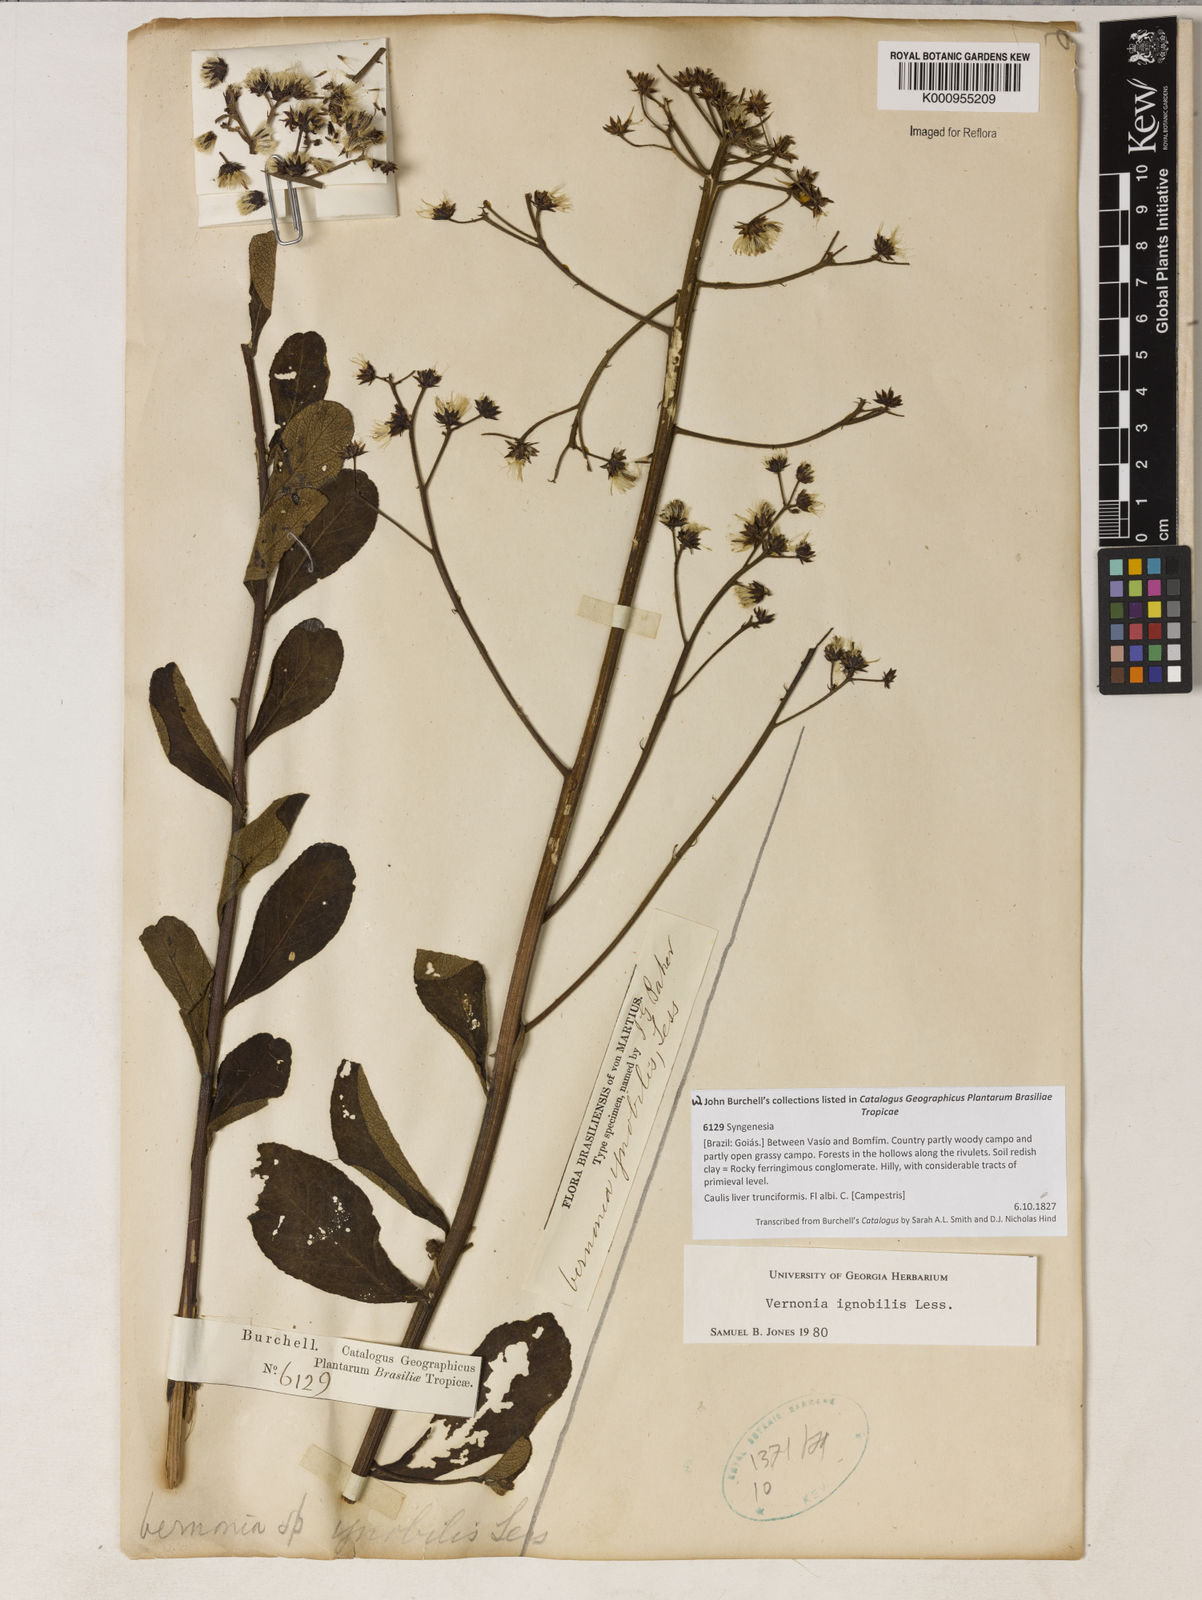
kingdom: Plantae
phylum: Tracheophyta
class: Magnoliopsida
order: Asterales
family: Asteraceae
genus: Vernonanthura
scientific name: Vernonanthura ignobilis
